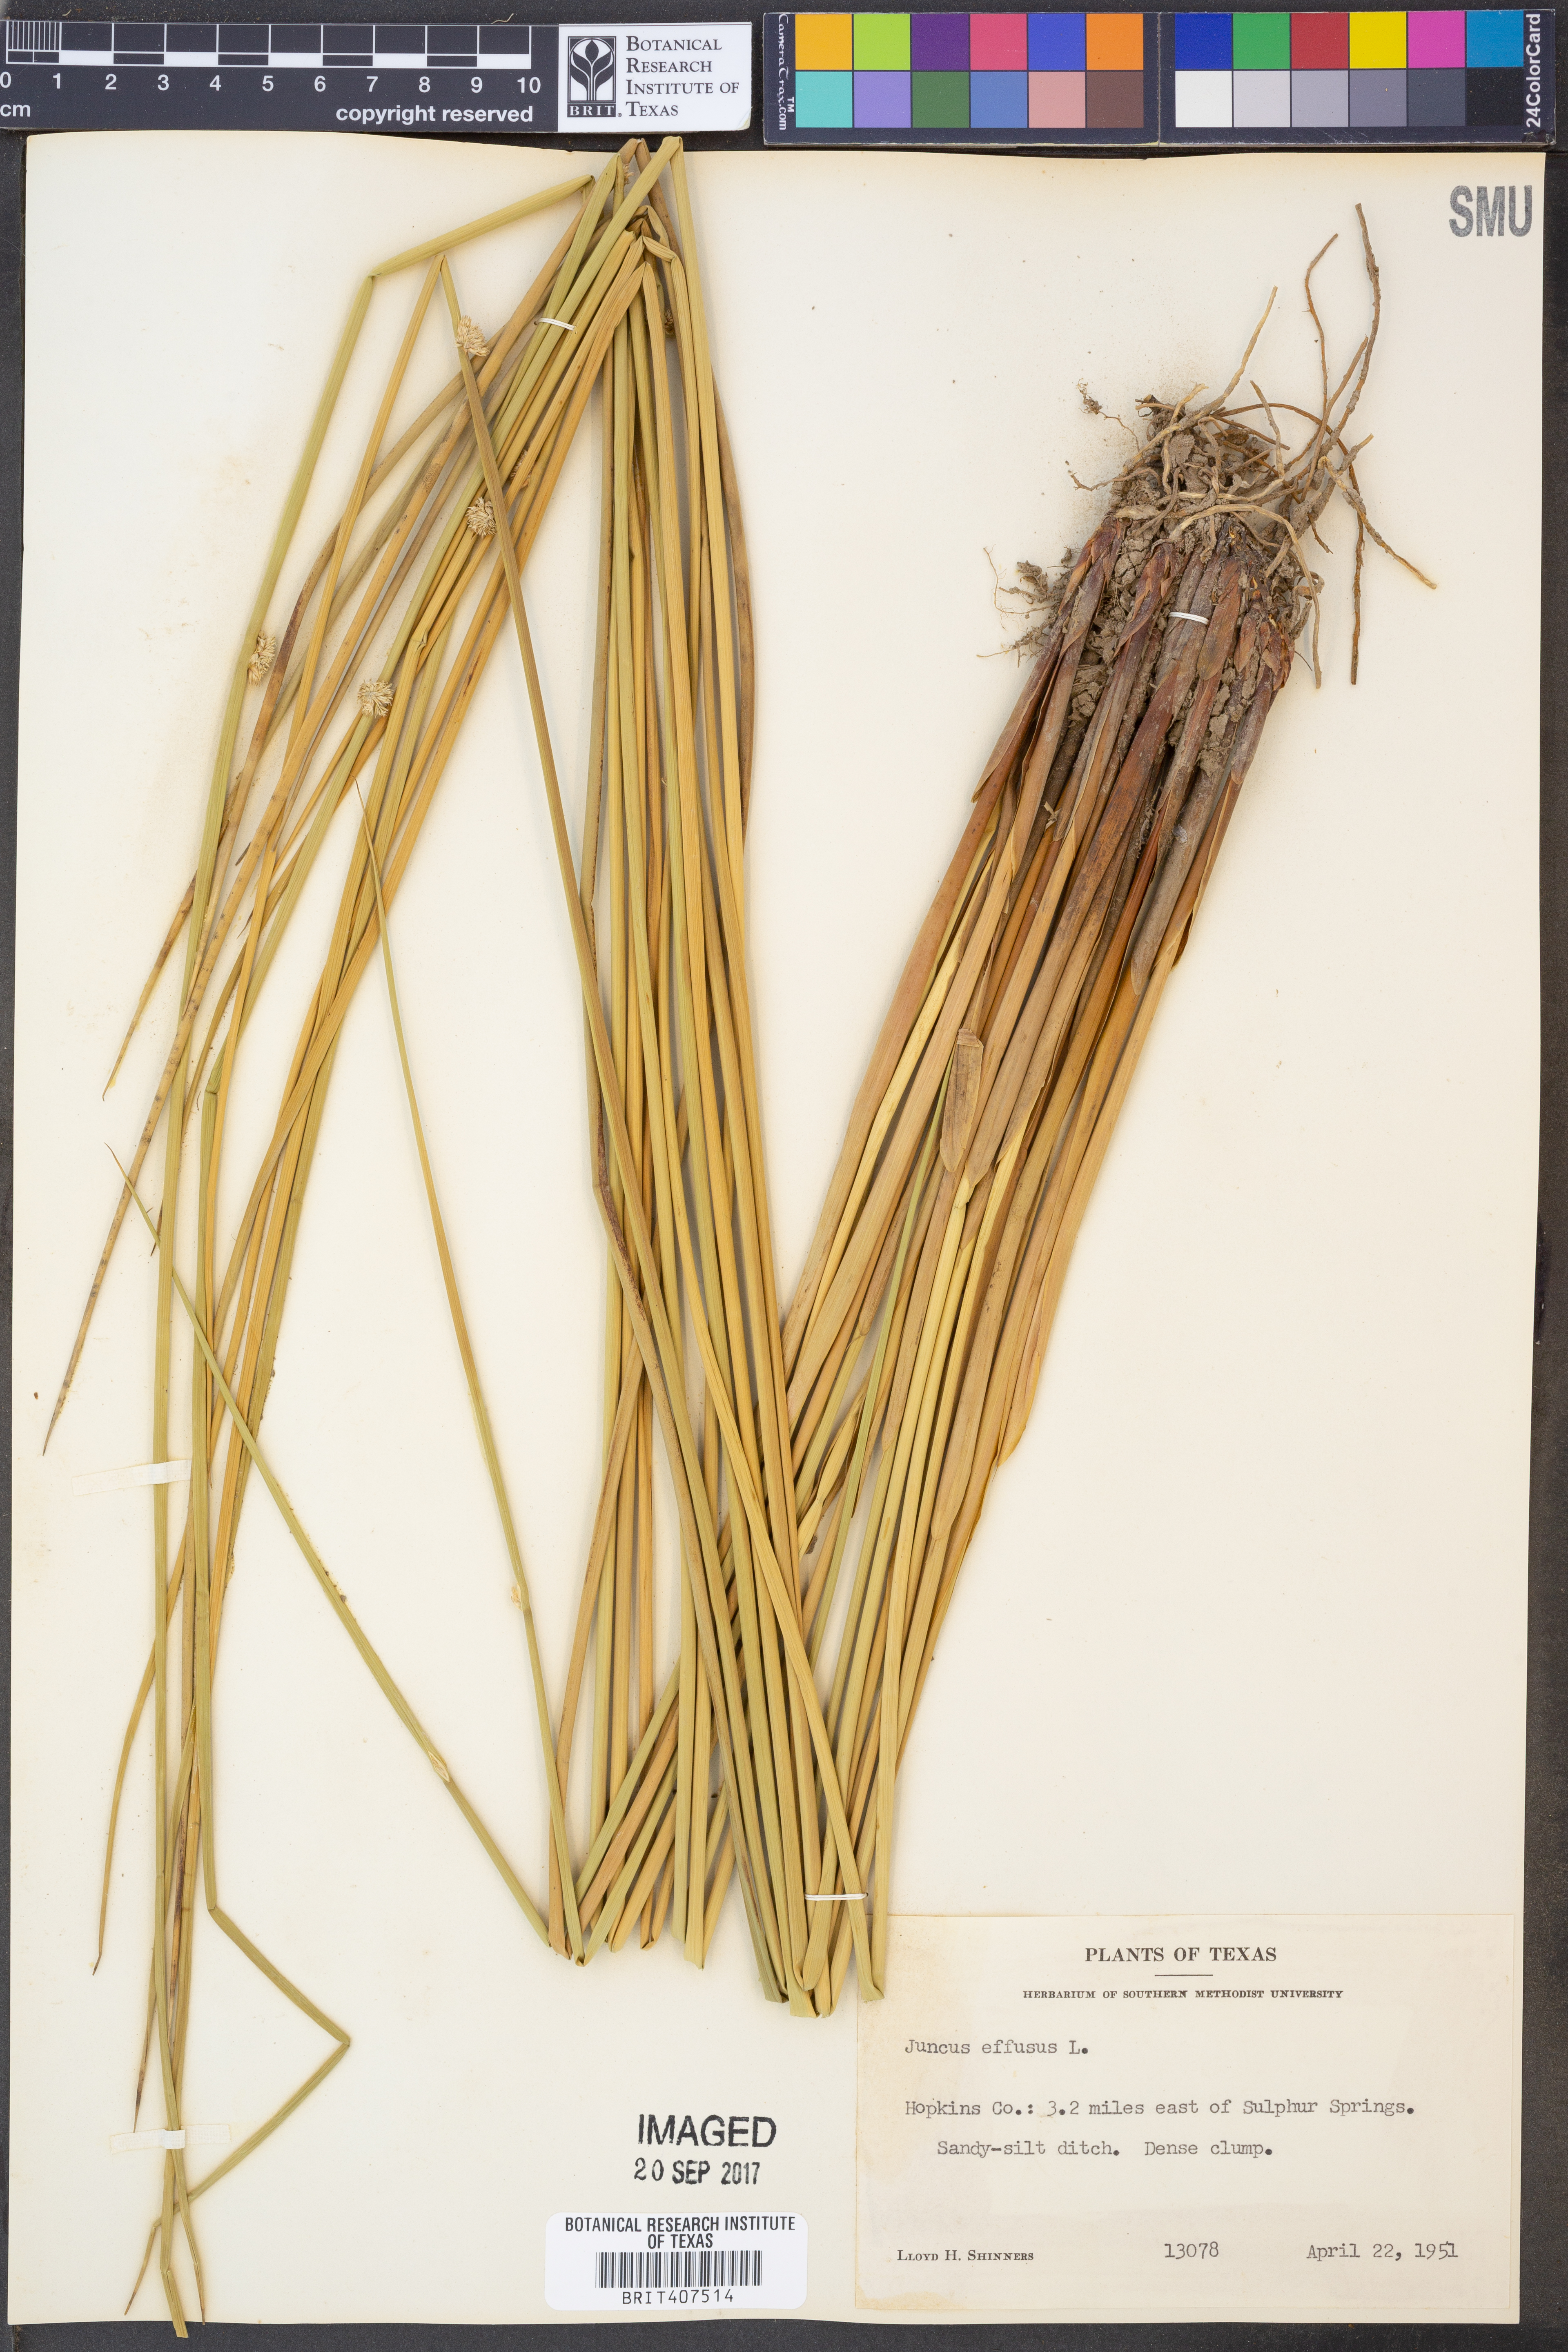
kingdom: Plantae
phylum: Tracheophyta
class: Liliopsida
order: Poales
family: Juncaceae
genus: Juncus
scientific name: Juncus effusus
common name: Soft rush
